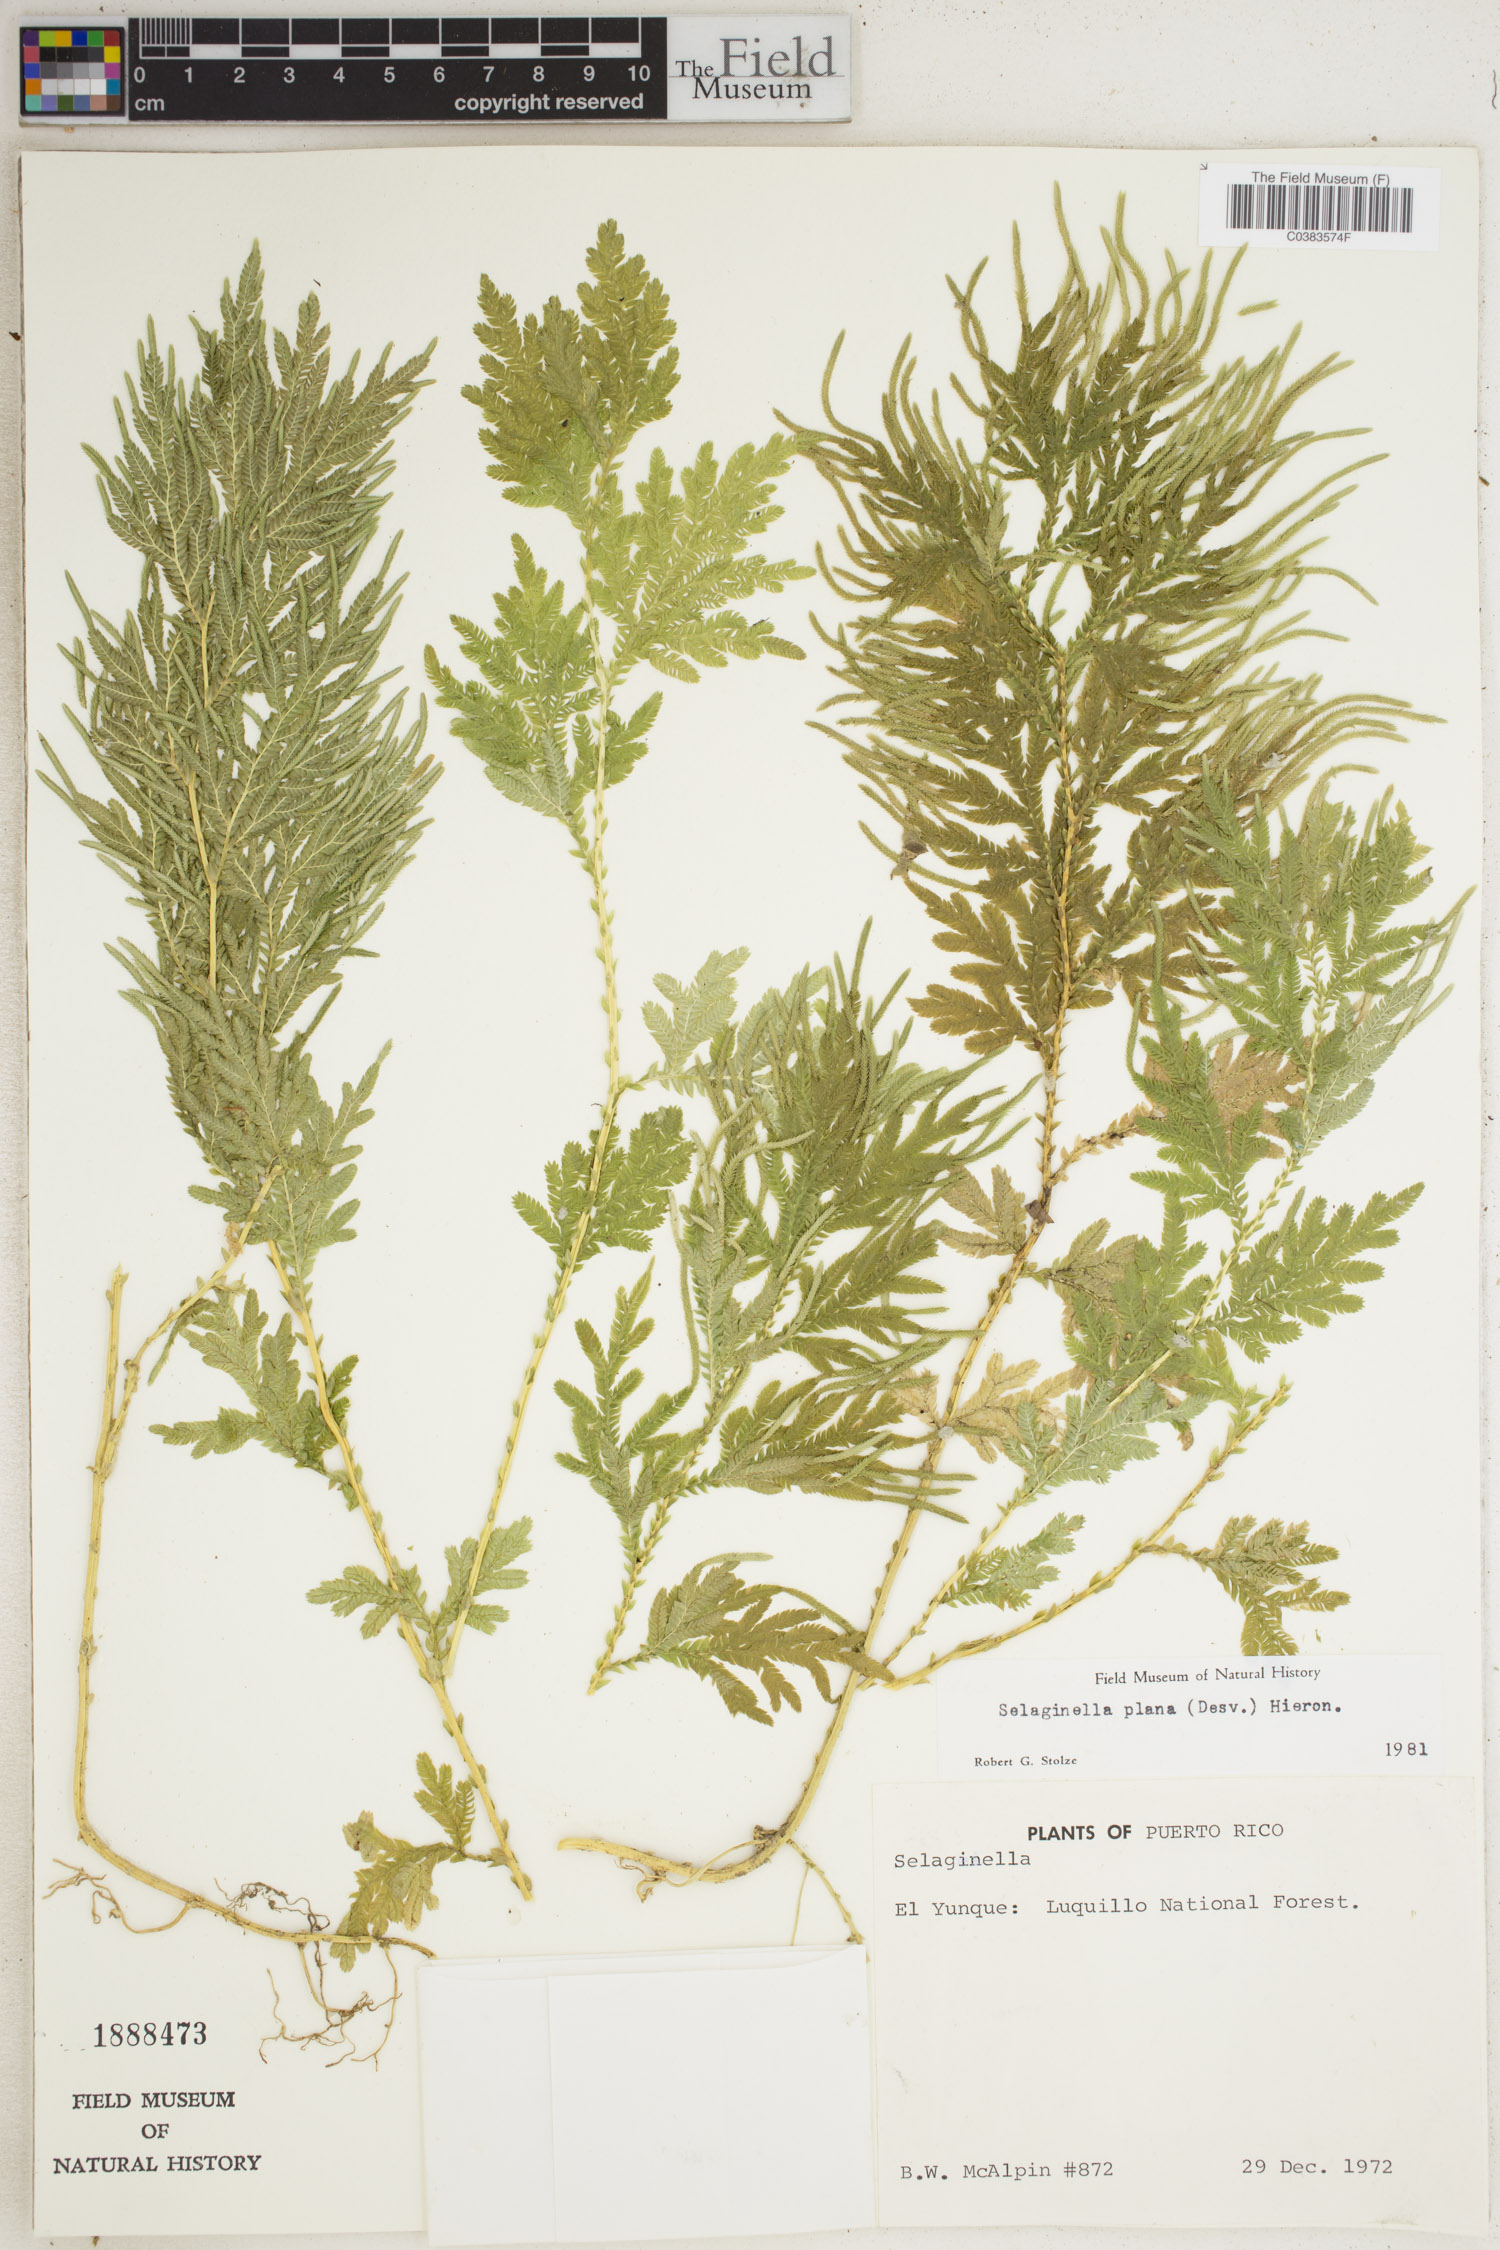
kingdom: Plantae
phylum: Tracheophyta
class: Lycopodiopsida
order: Selaginellales
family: Selaginellaceae
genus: Selaginella
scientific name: Selaginella plana
